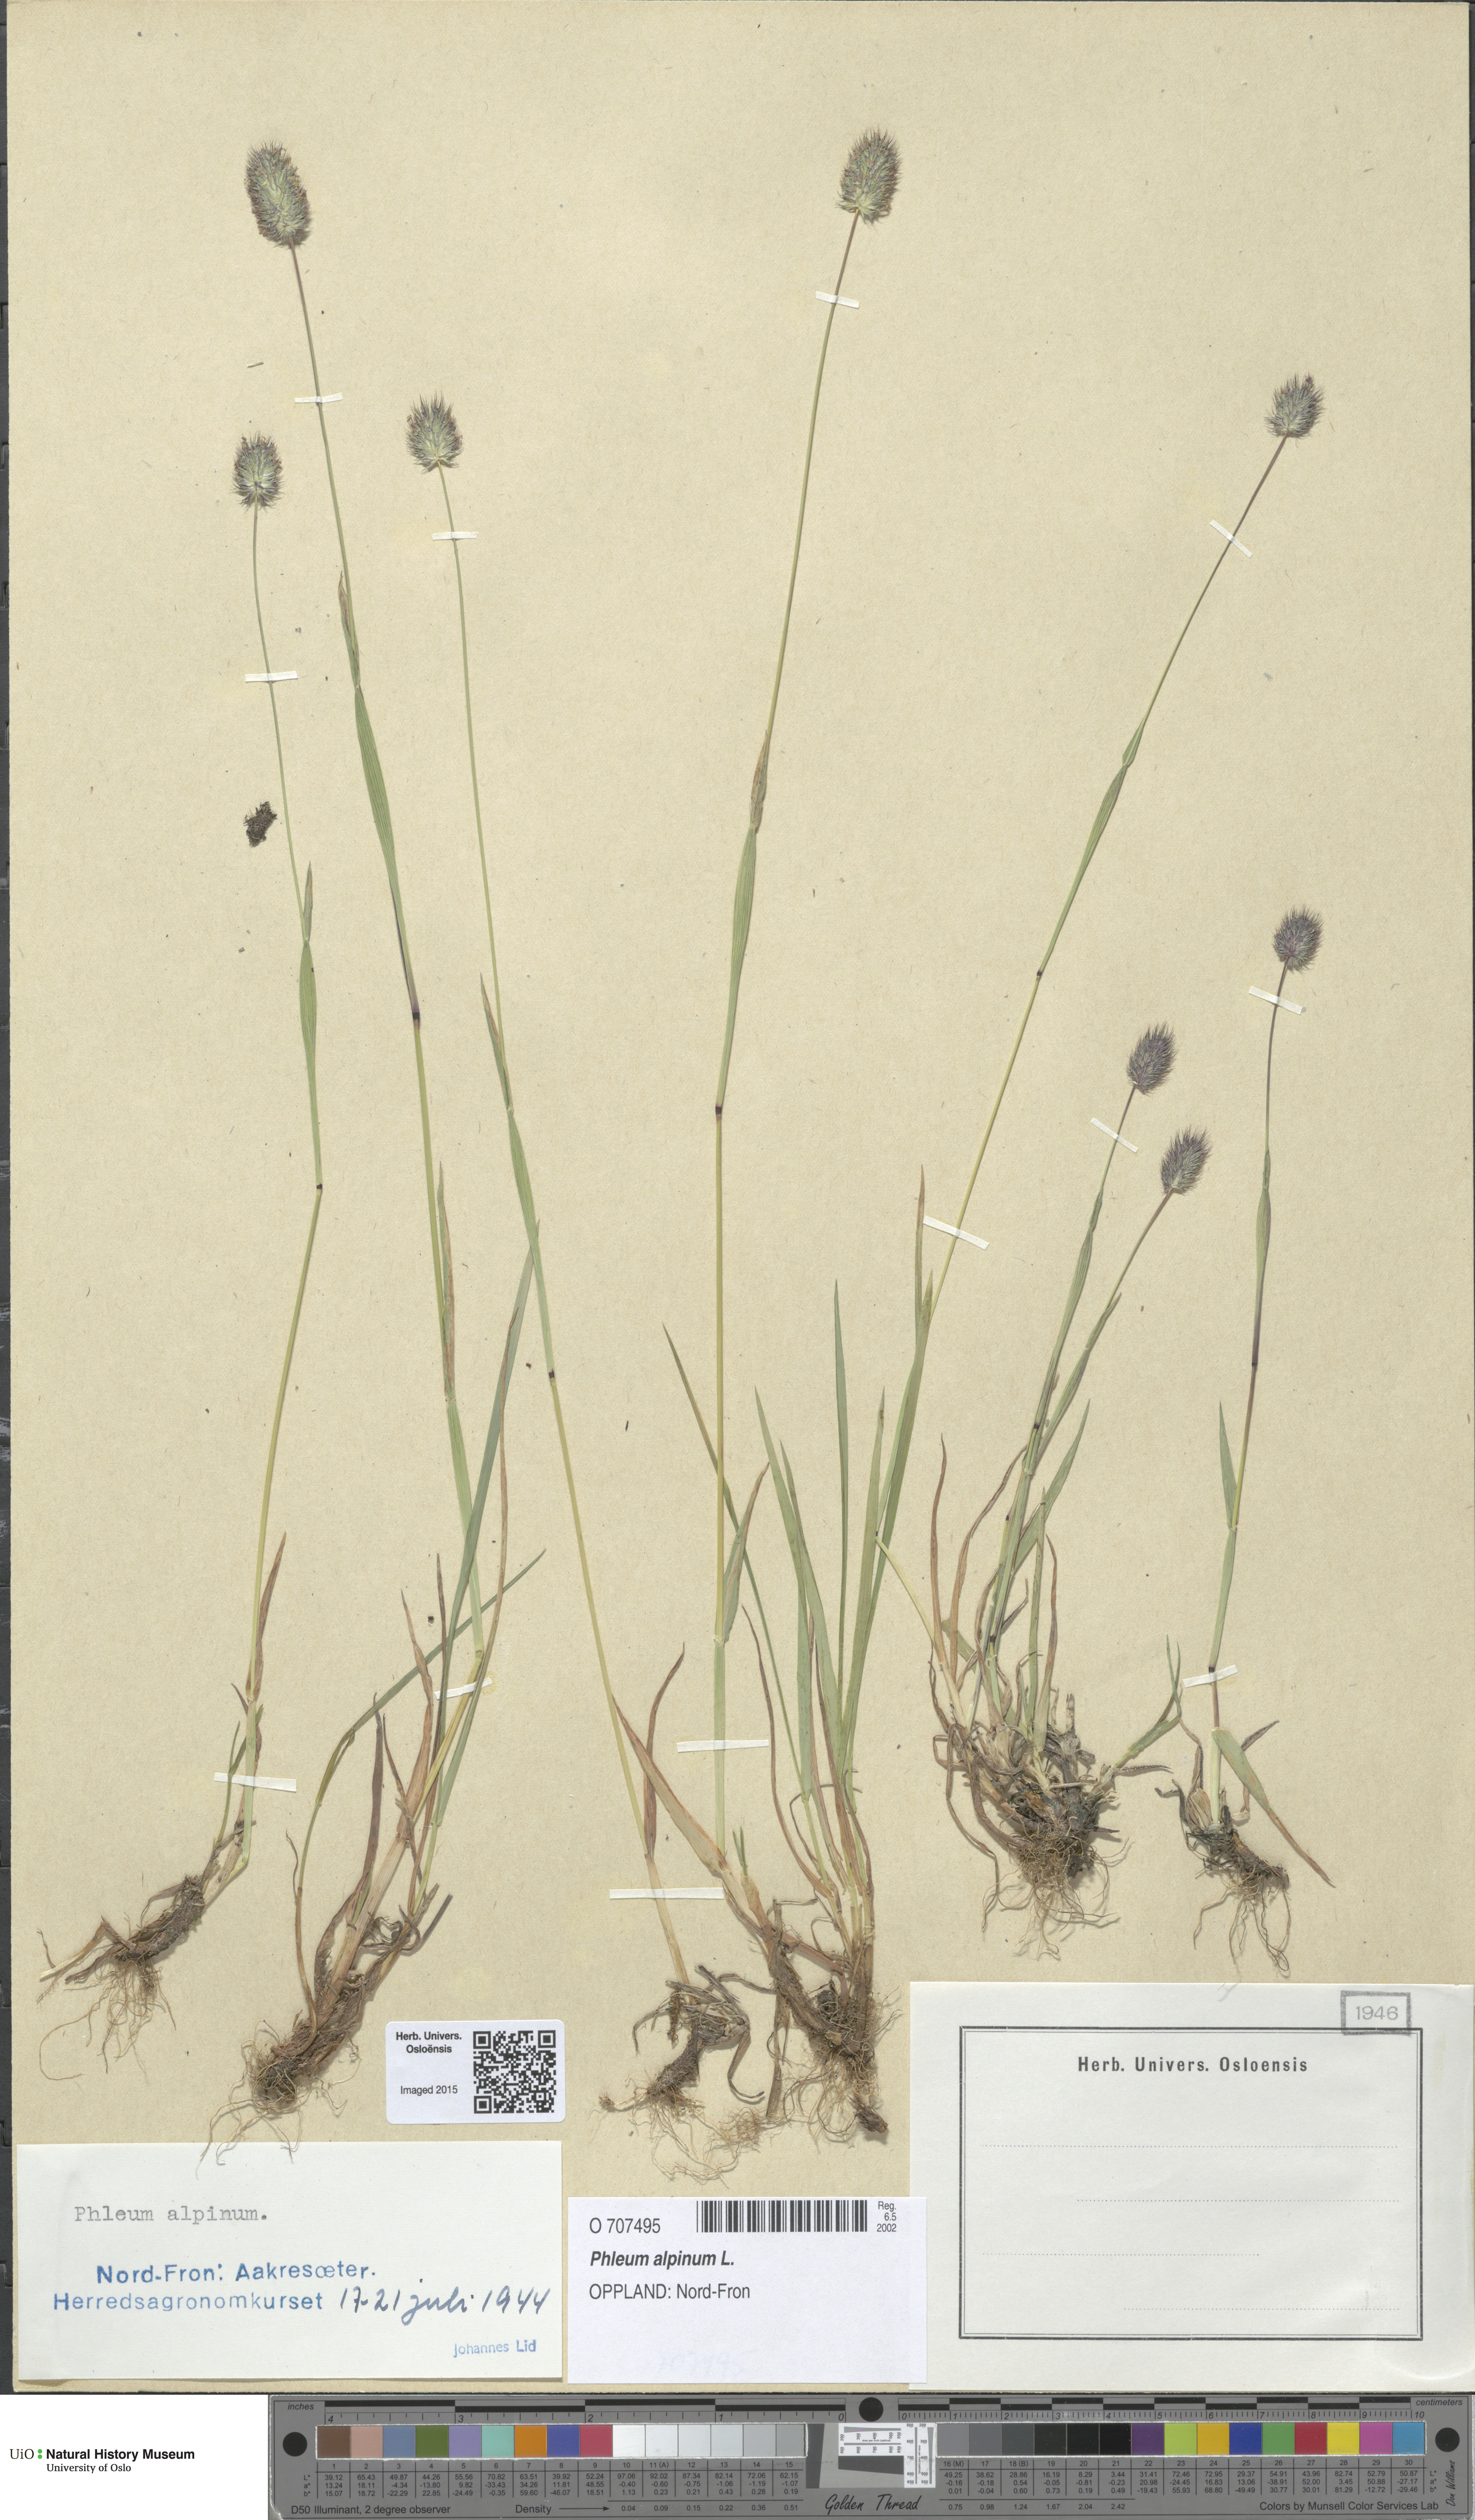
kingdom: Plantae
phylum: Tracheophyta
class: Liliopsida
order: Poales
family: Poaceae
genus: Phleum
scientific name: Phleum alpinum
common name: Alpine cat's-tail
